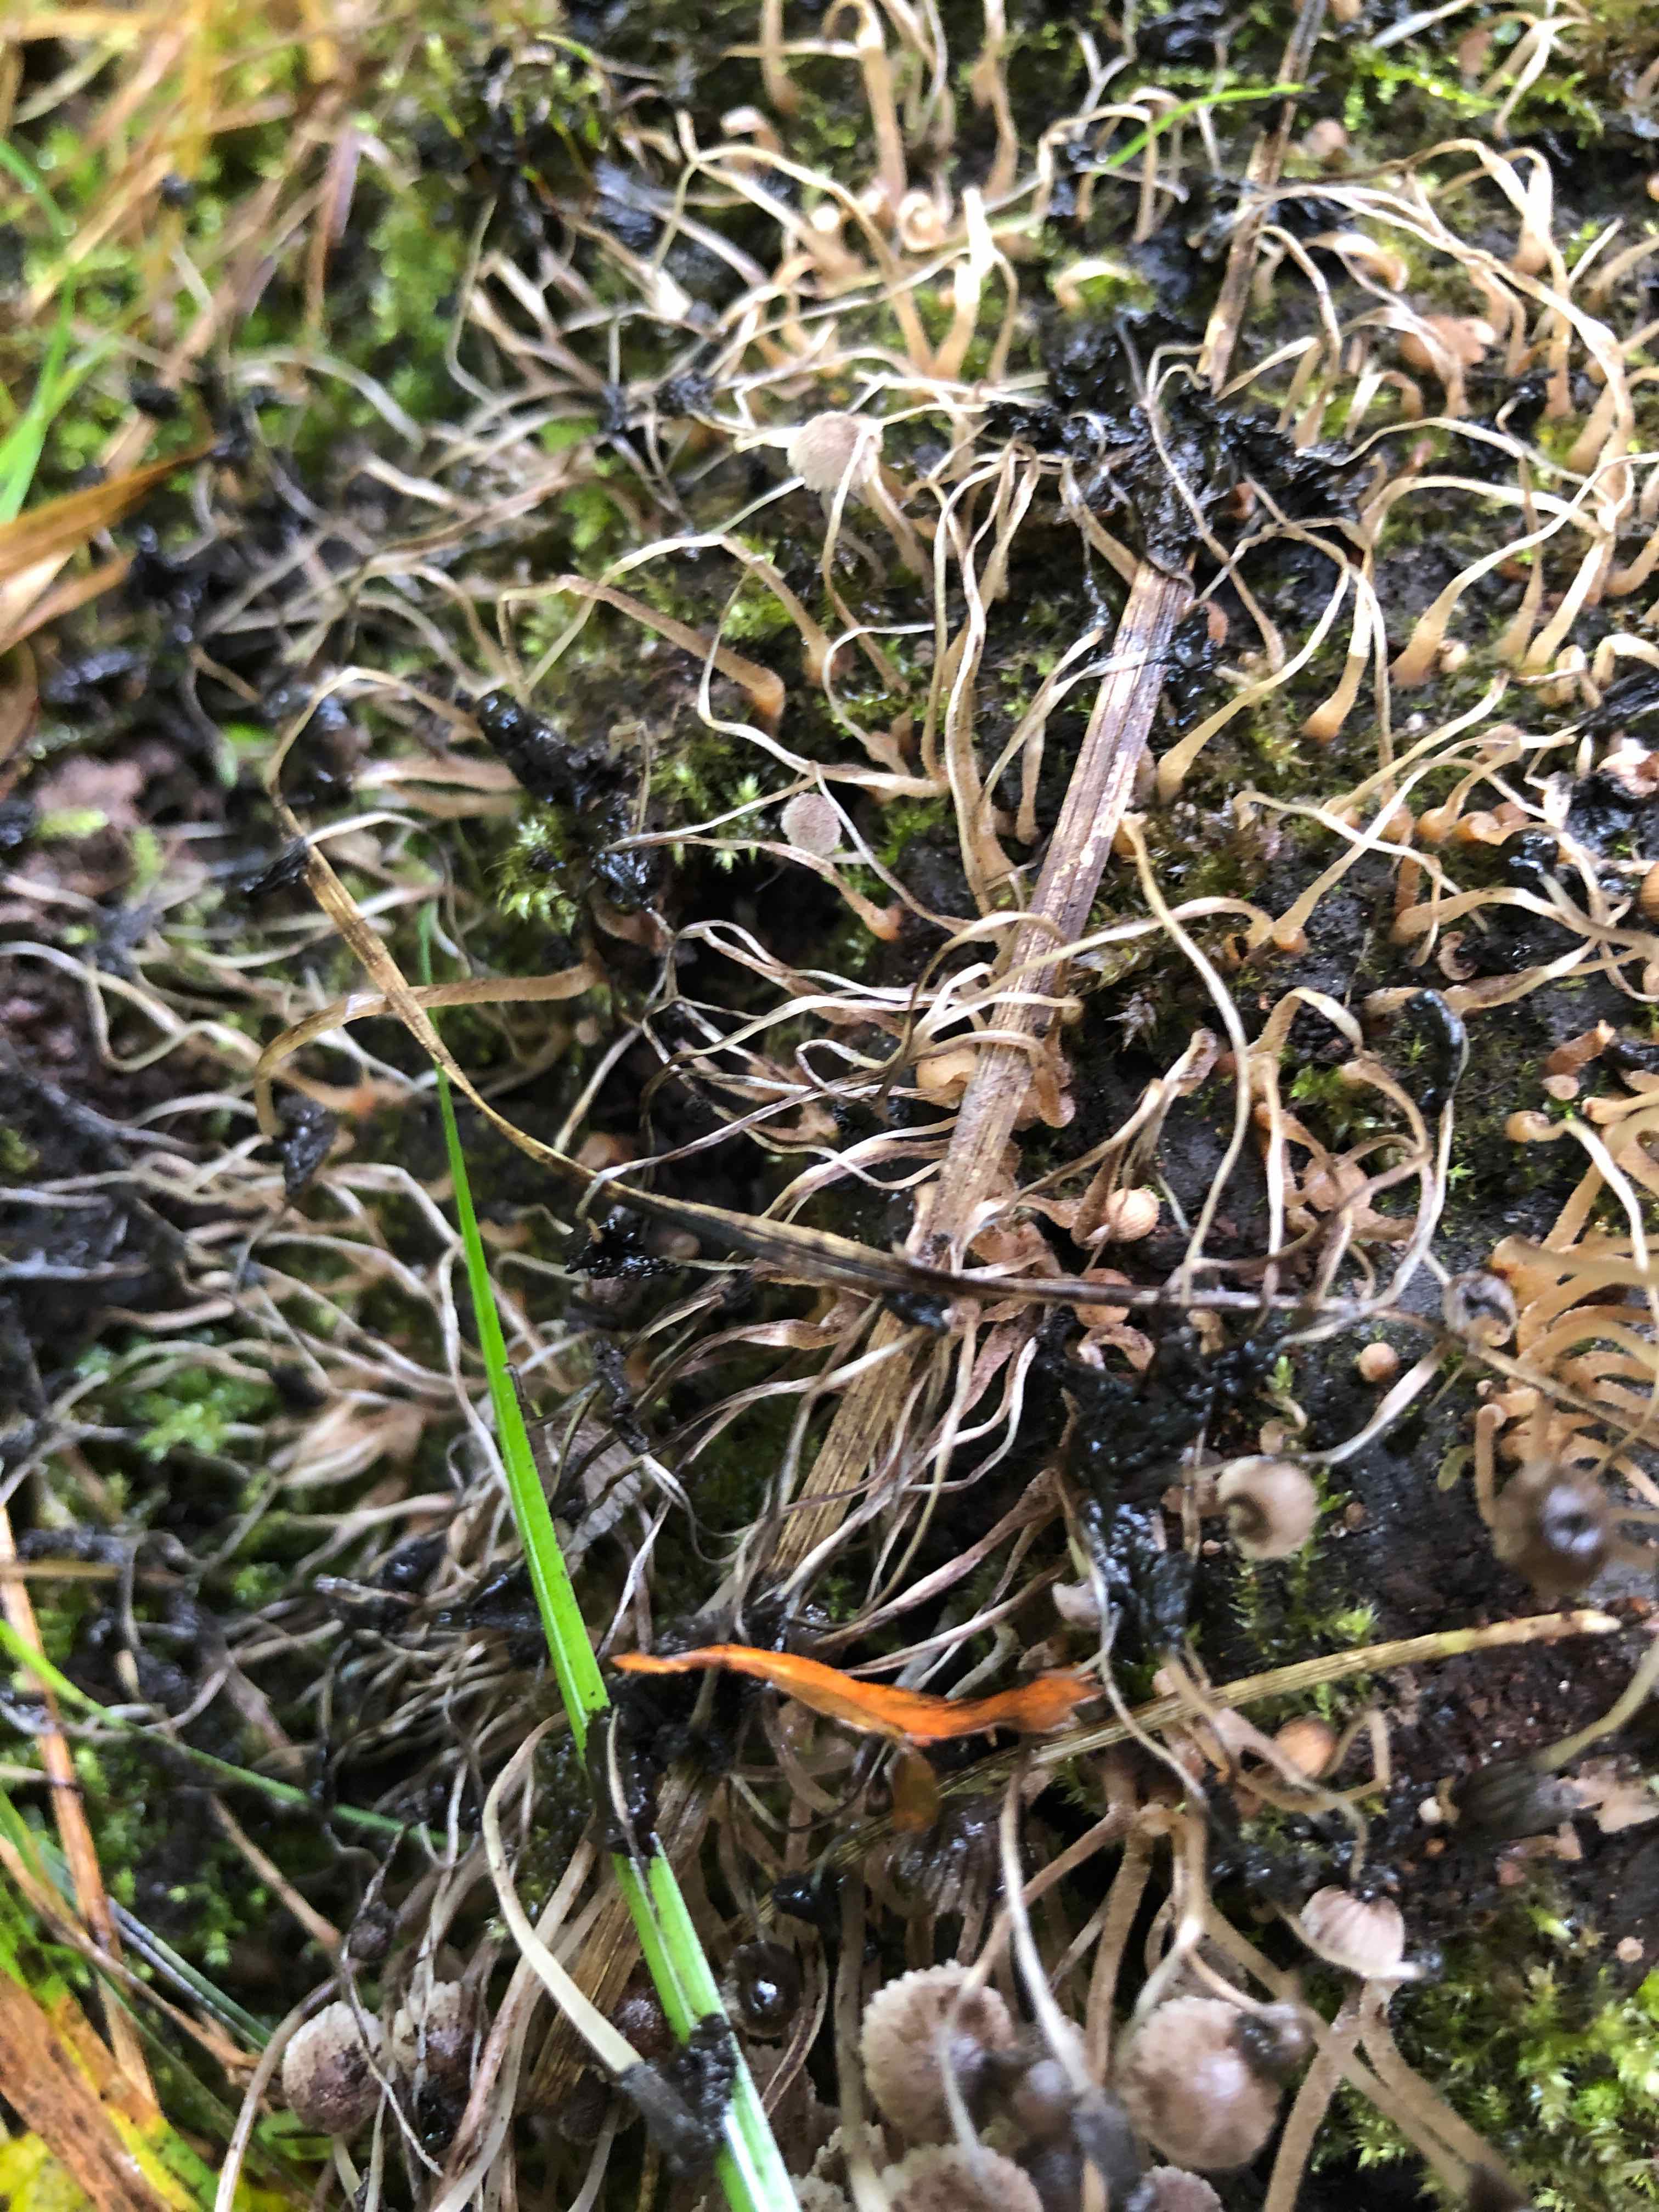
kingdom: Fungi
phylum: Basidiomycota
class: Agaricomycetes
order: Agaricales
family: Psathyrellaceae
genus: Coprinellus
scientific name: Coprinellus disseminatus
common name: bredsået blækhat
